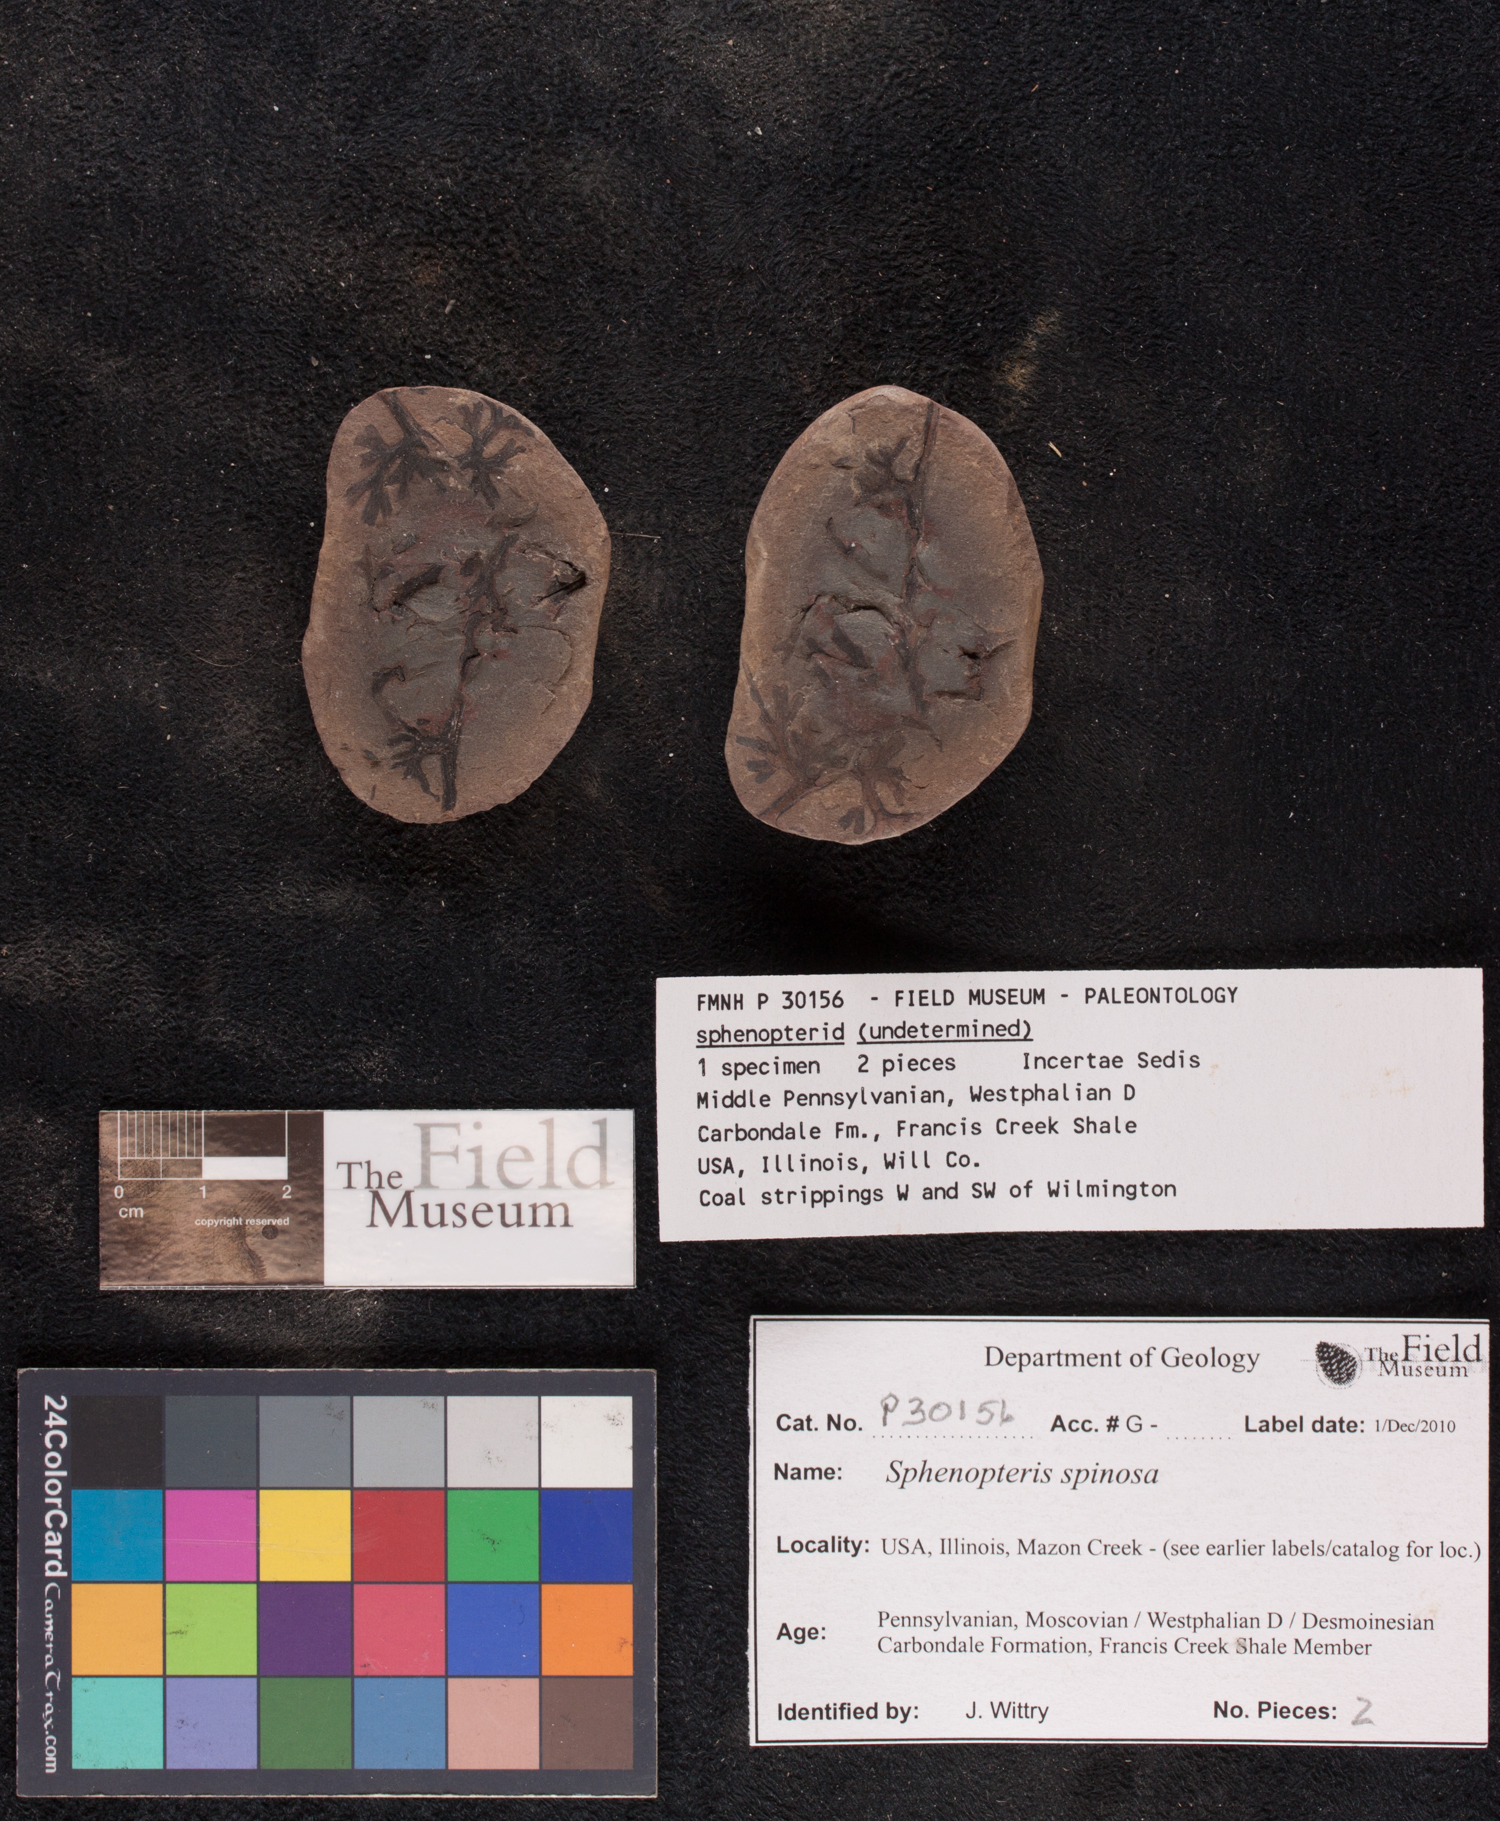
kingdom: Plantae
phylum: Tracheophyta
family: Lyginopteridaceae
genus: Sphenopteris
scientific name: Sphenopteris
